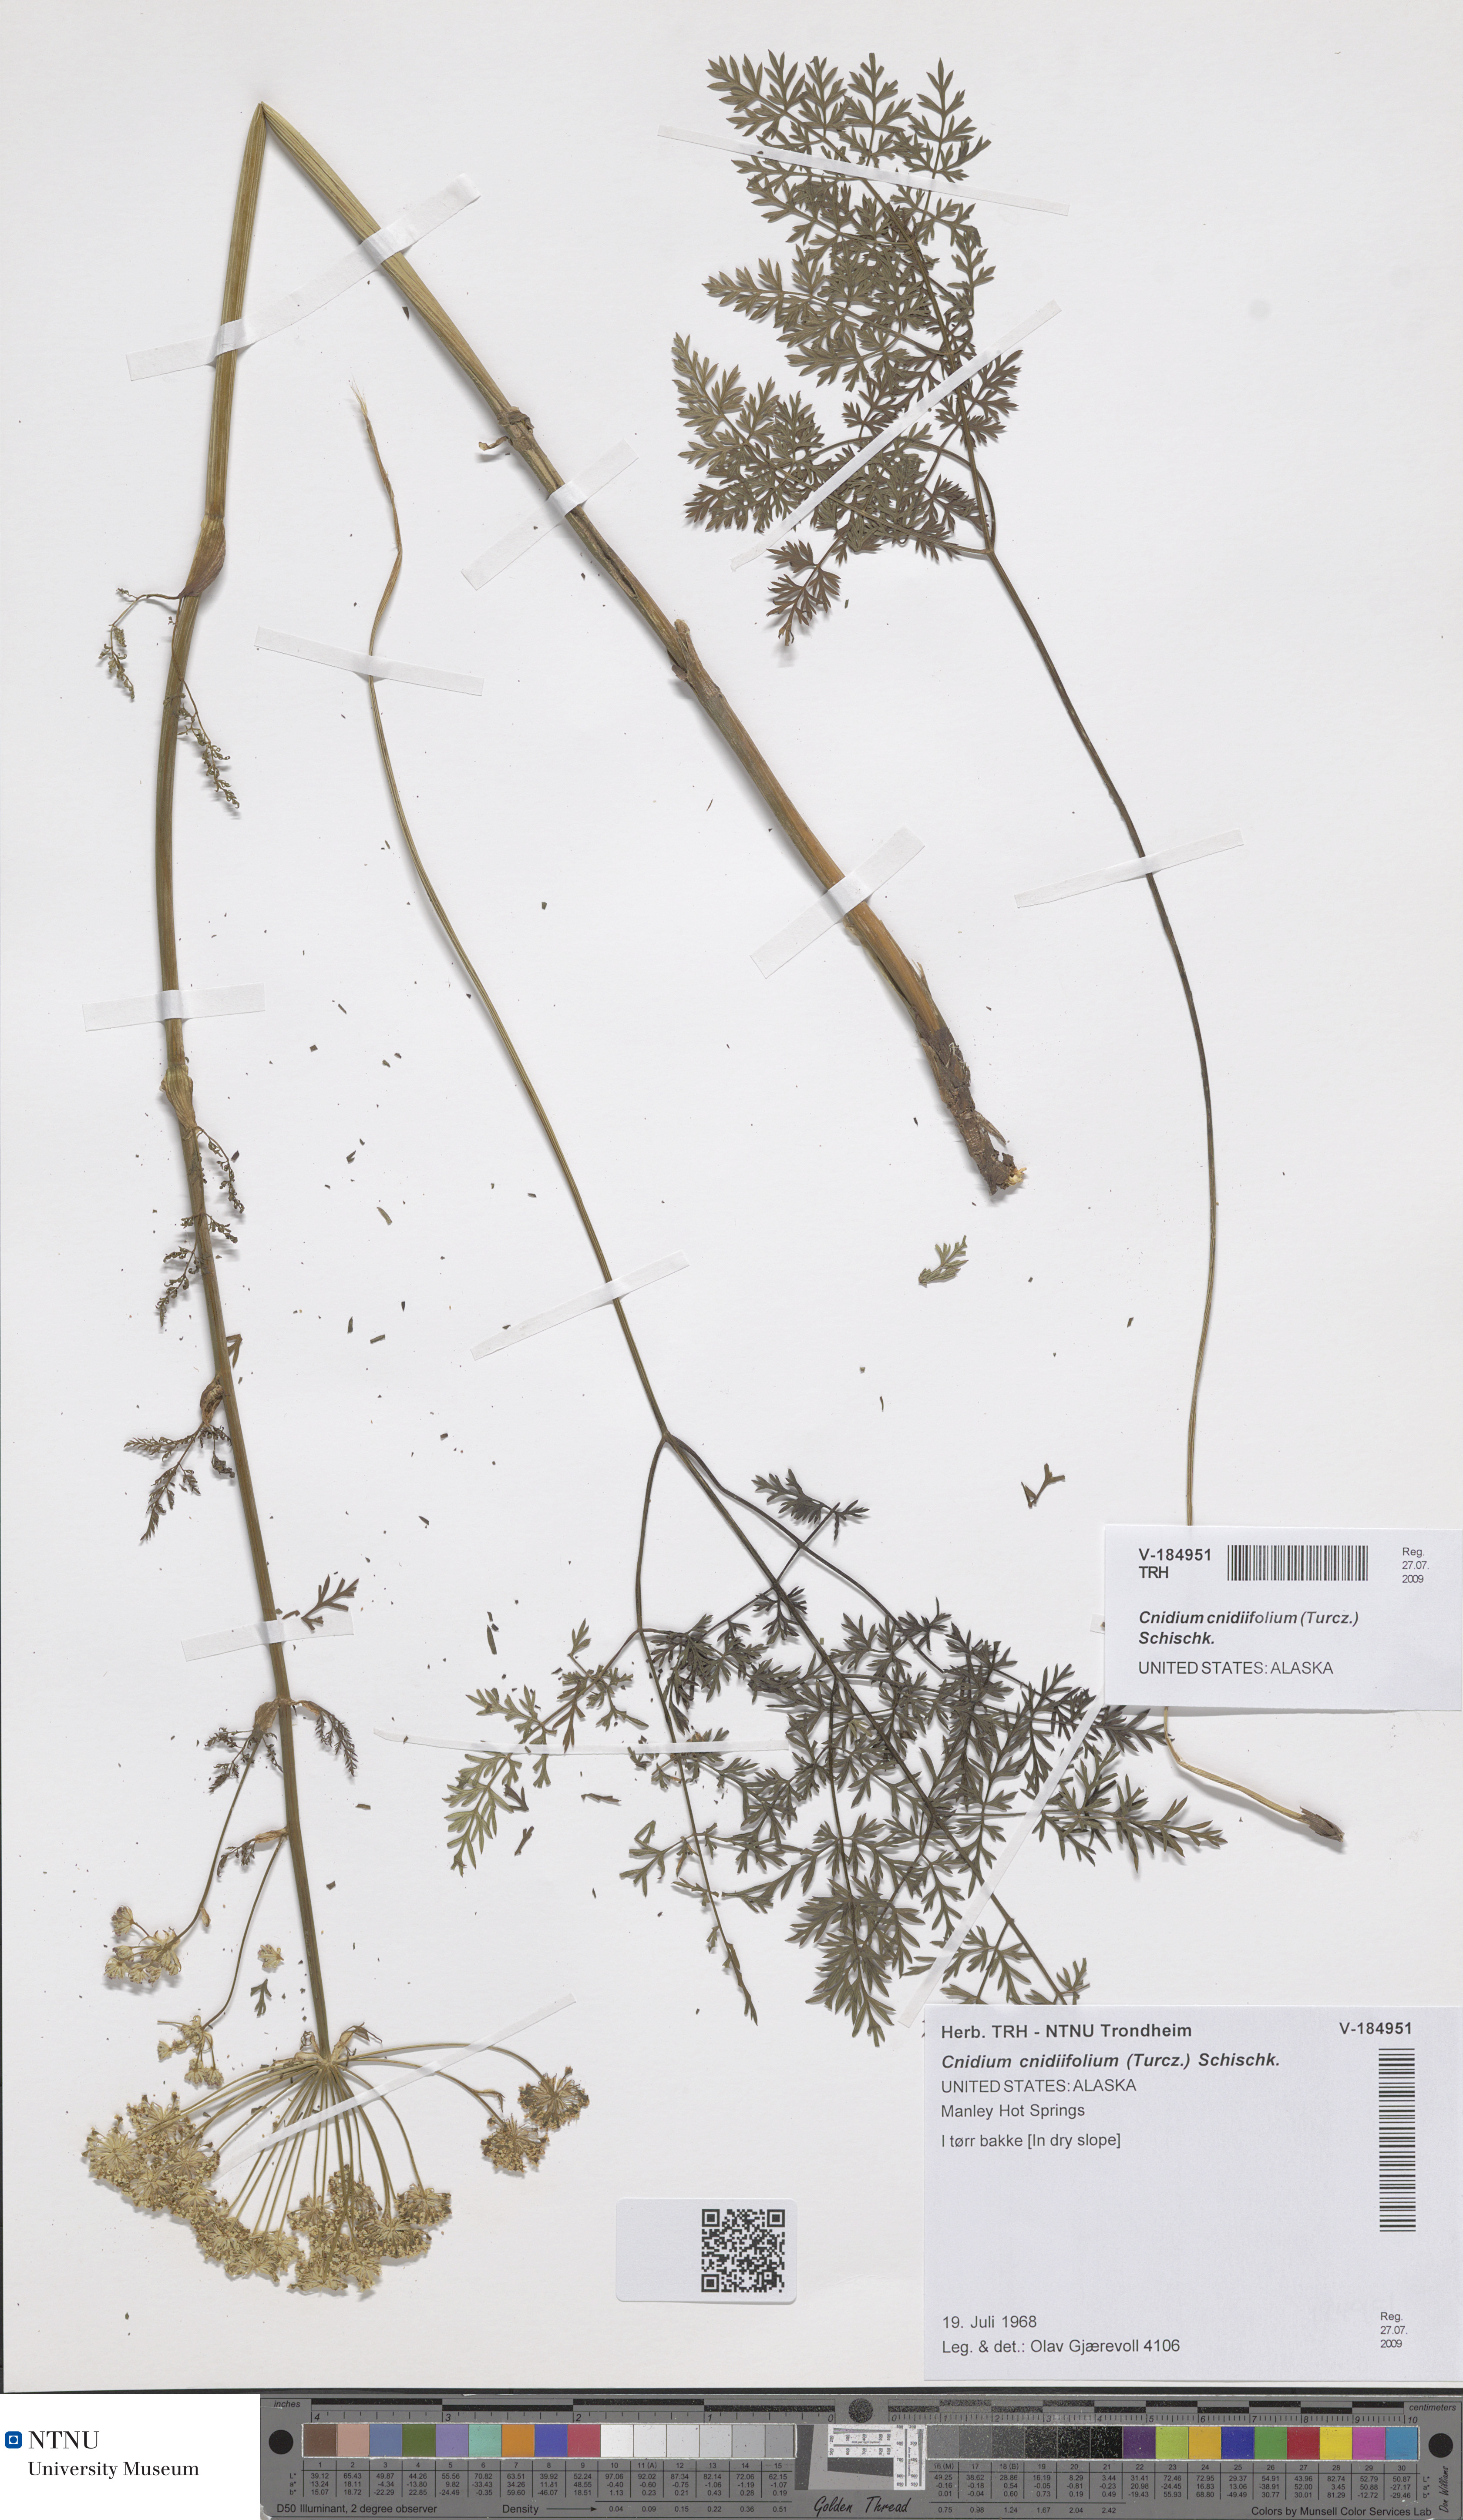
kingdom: Plantae
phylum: Tracheophyta
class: Magnoliopsida
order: Apiales
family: Apiaceae
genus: Cnidium
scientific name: Cnidium cnidiifolium
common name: Northern hemlock-parsley
